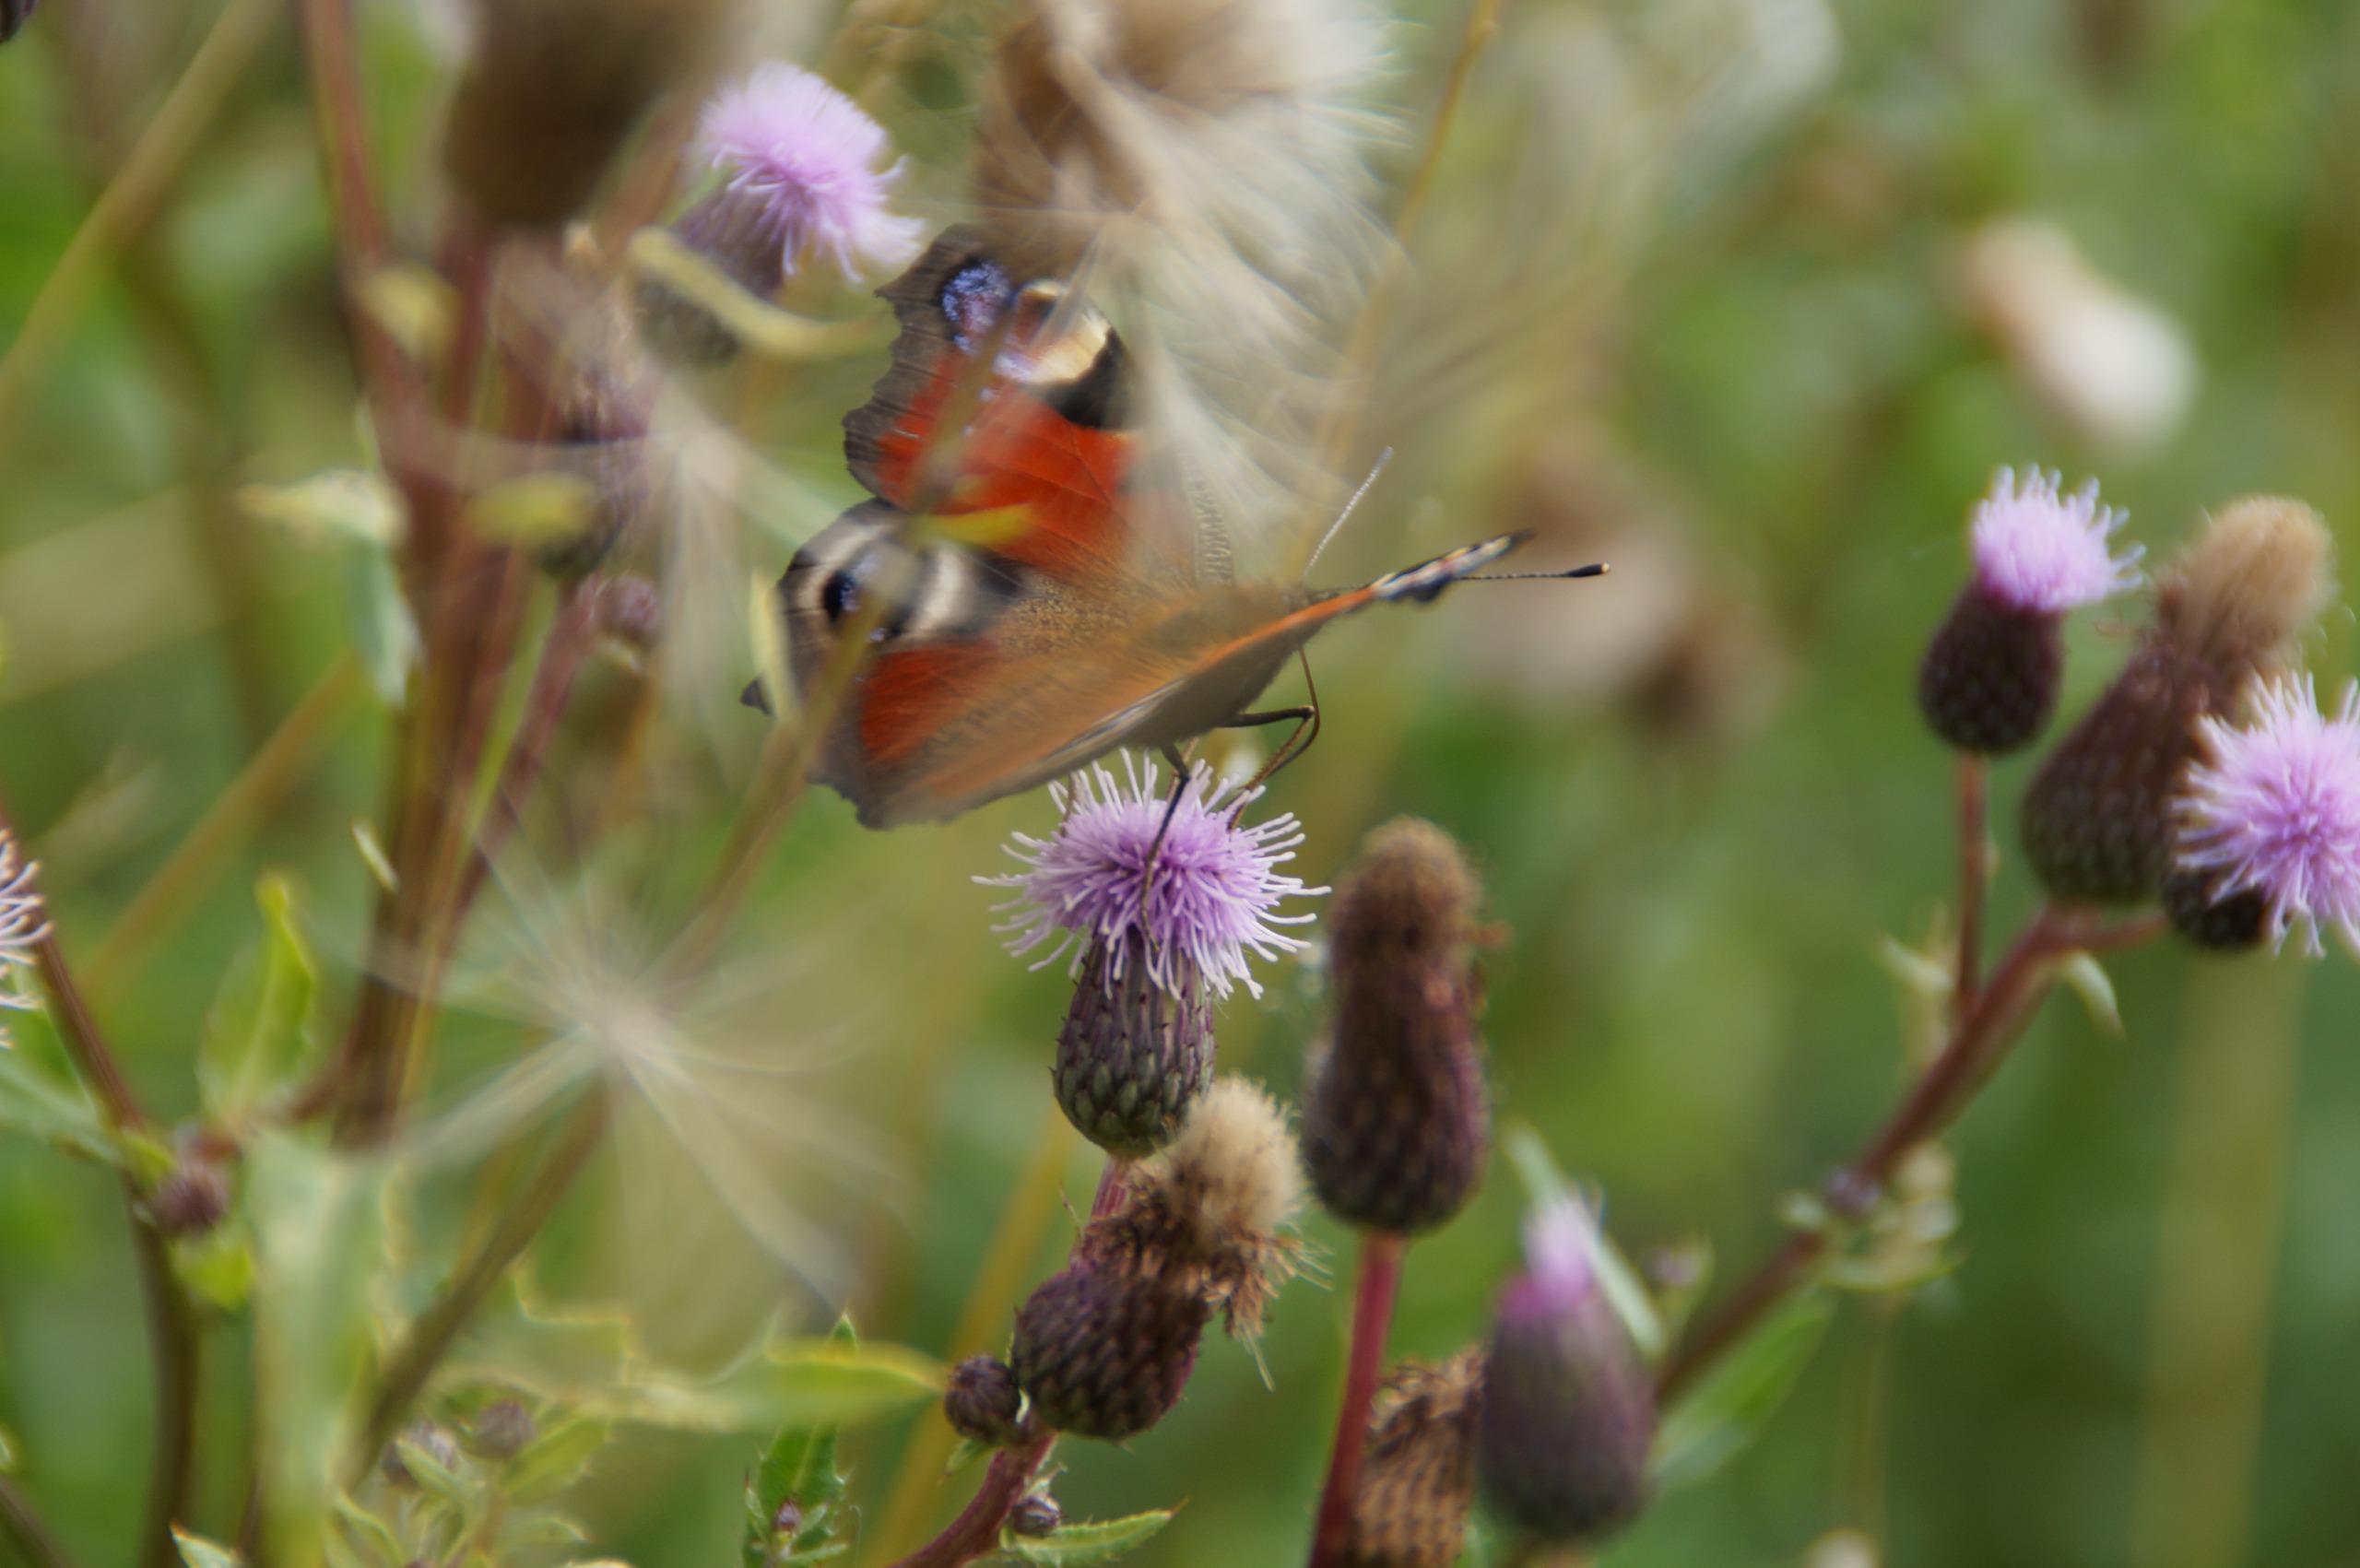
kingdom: Animalia
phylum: Arthropoda
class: Insecta
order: Lepidoptera
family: Nymphalidae
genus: Aglais
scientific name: Aglais io
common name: Dagpåfugleøje
